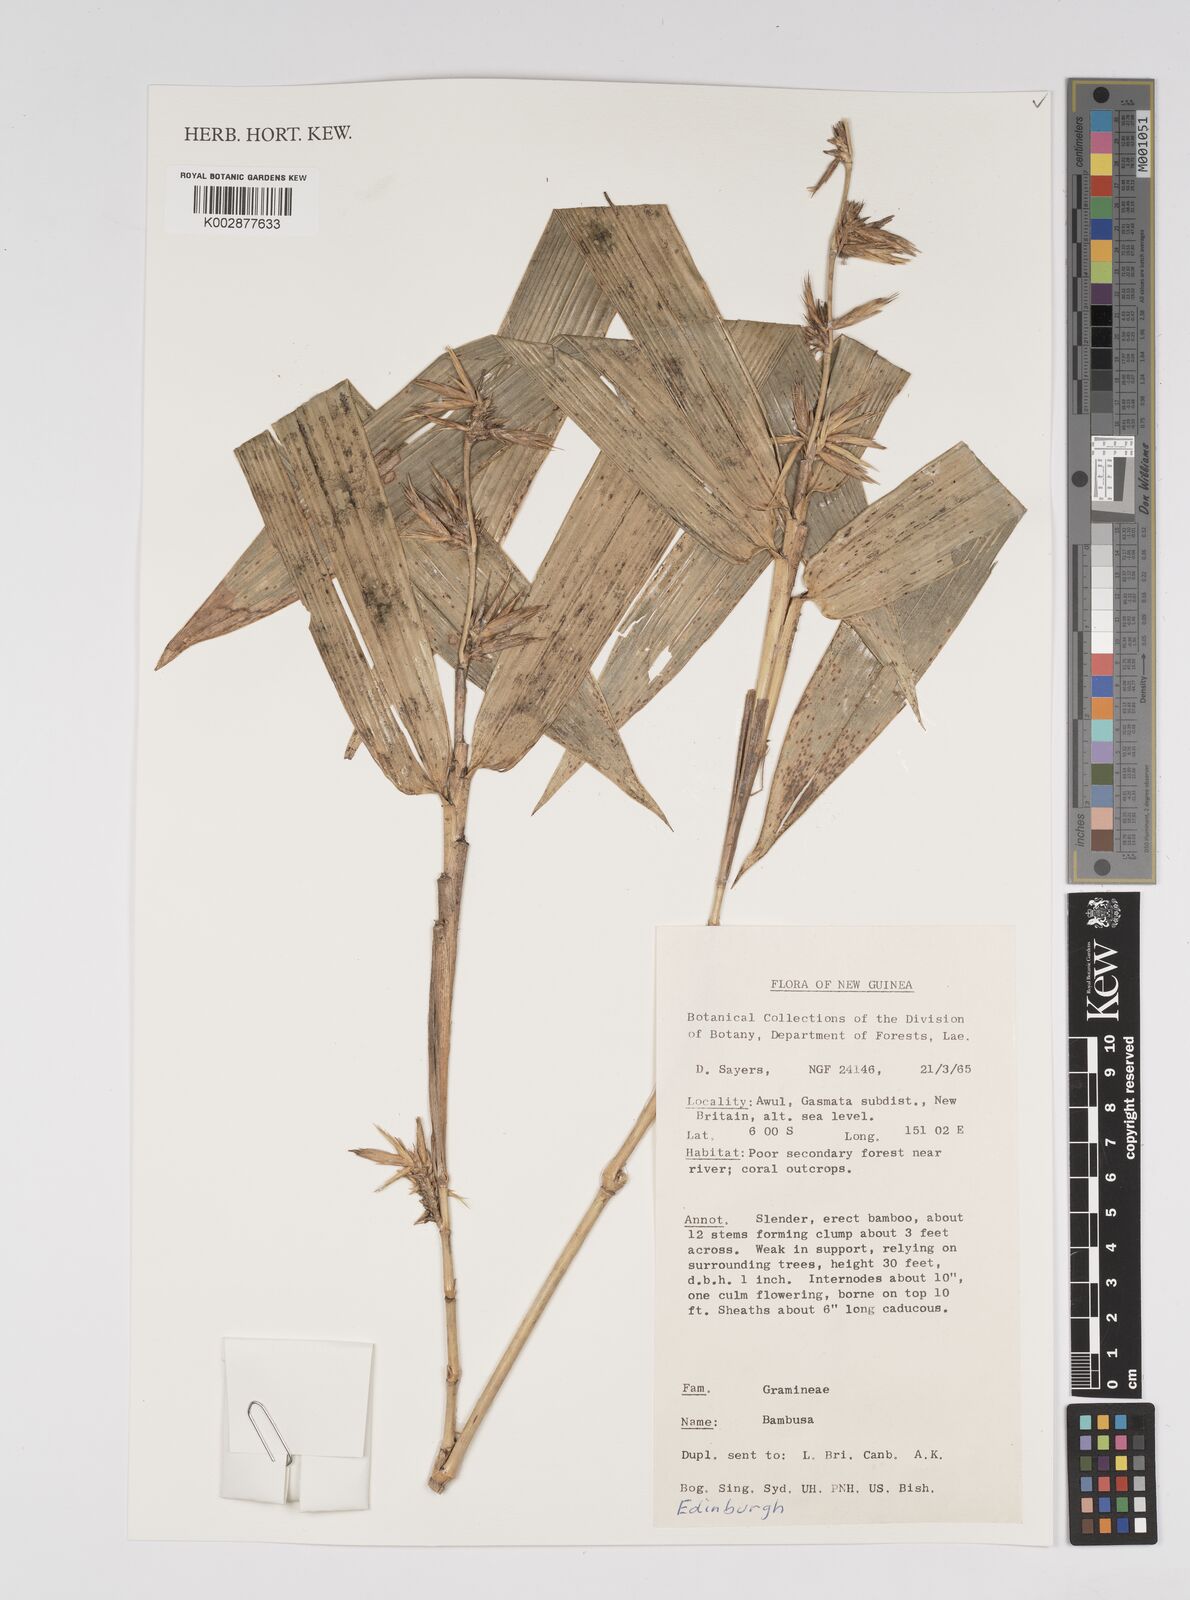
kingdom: Plantae
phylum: Tracheophyta
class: Liliopsida
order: Poales
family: Poaceae
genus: Bambusa
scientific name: Bambusa
